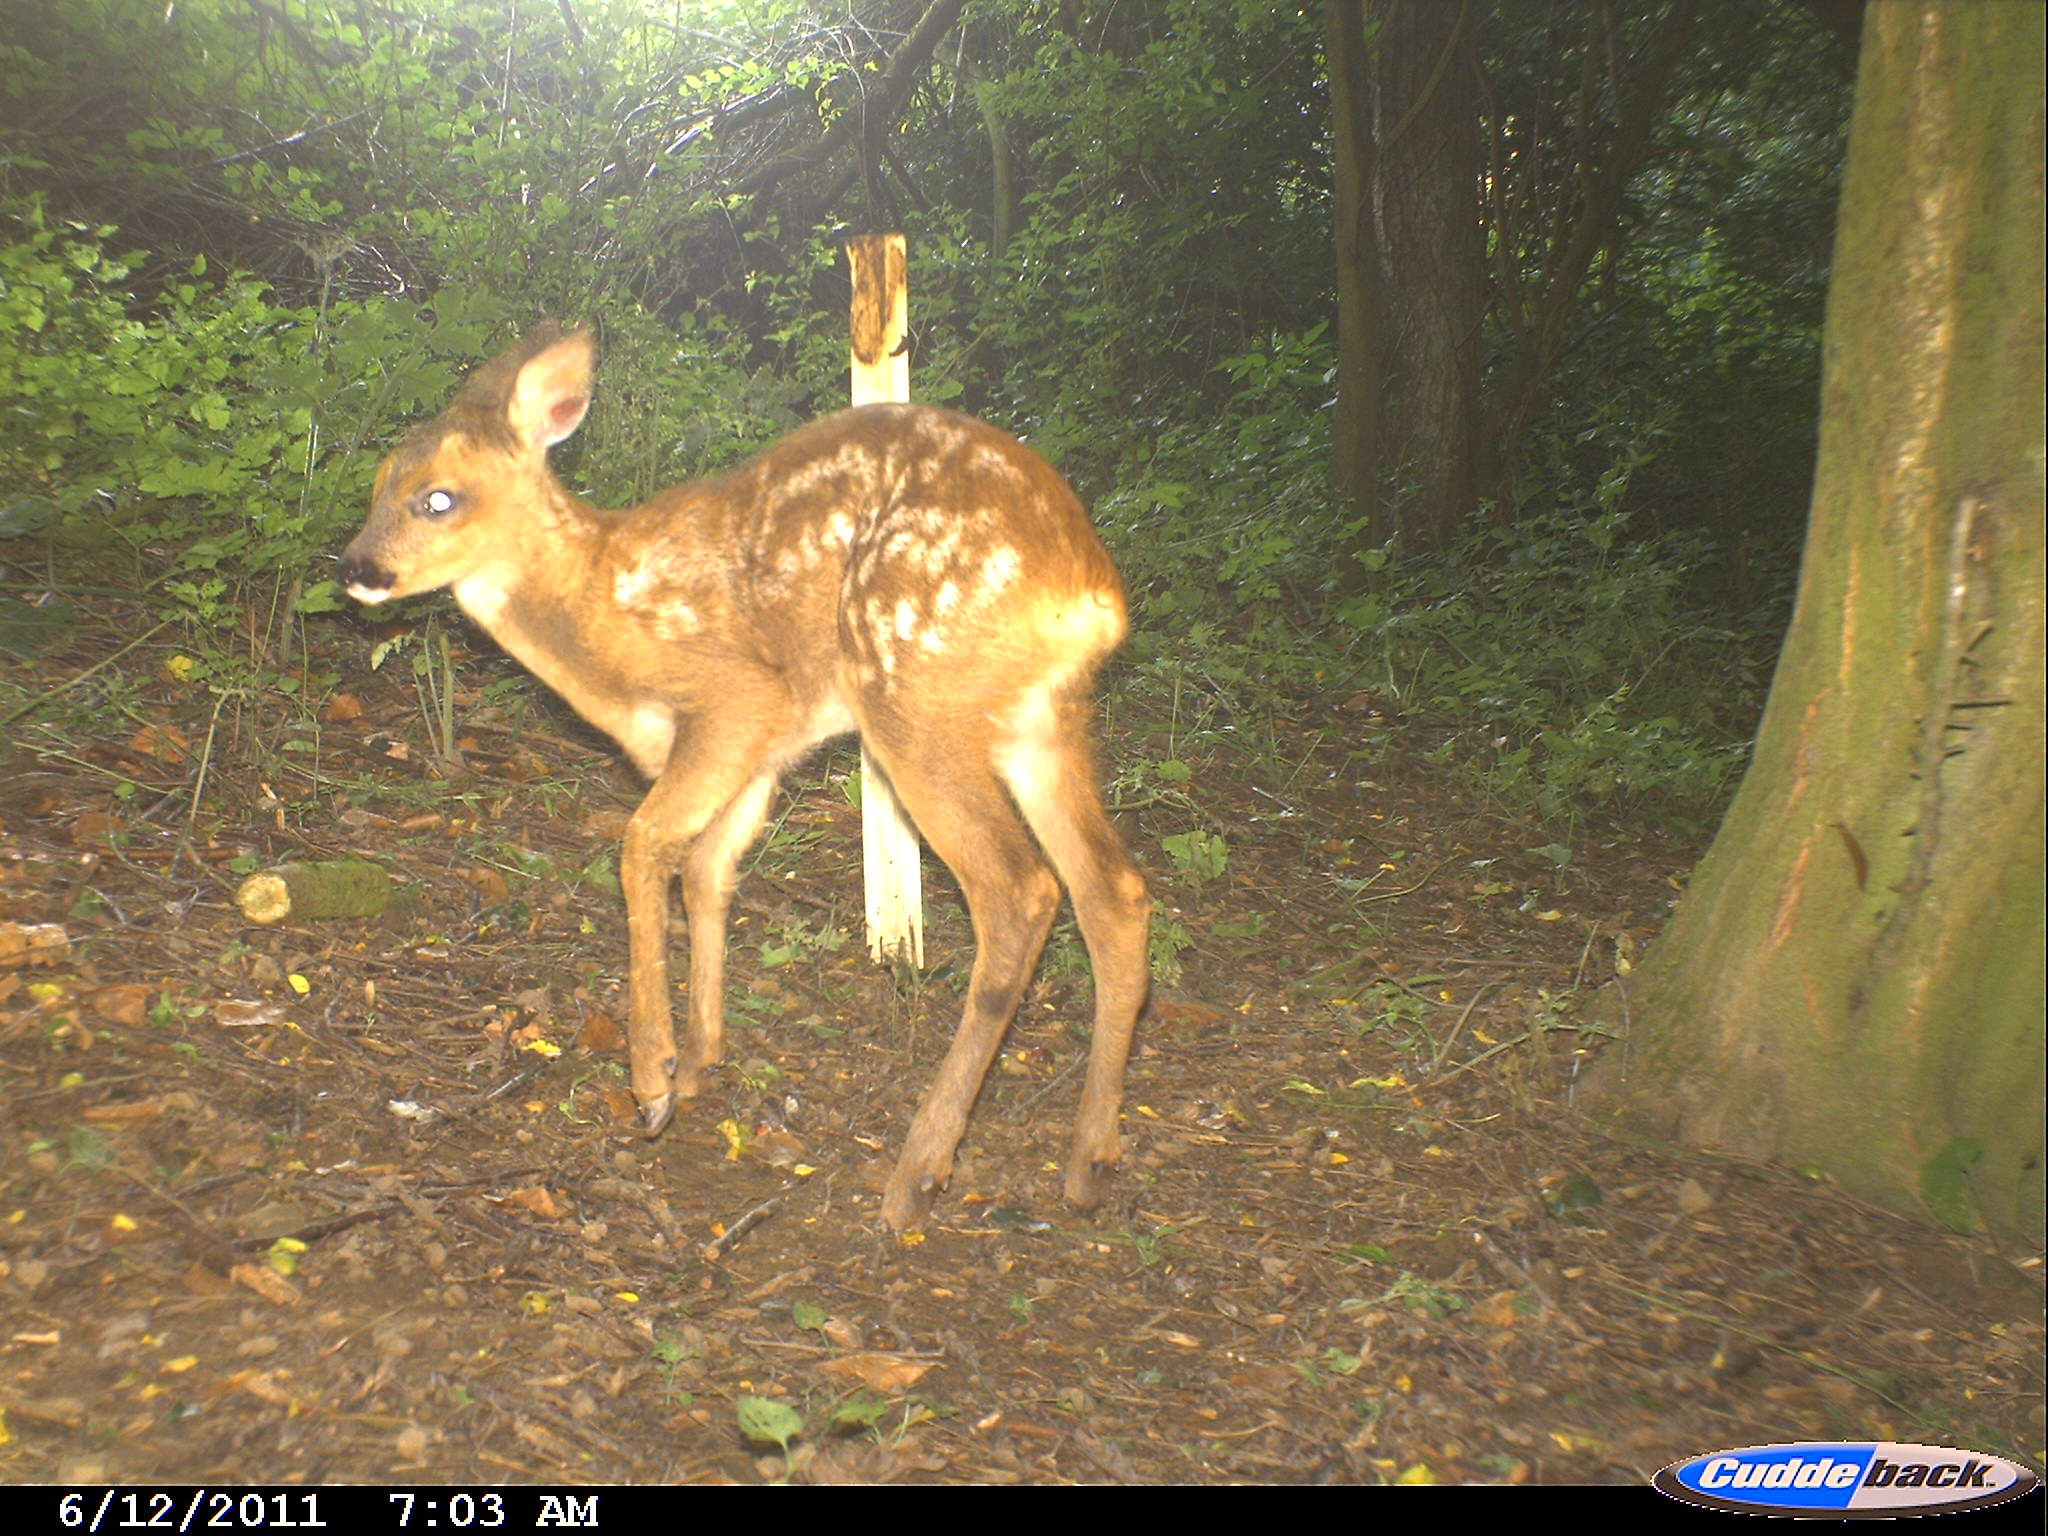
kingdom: Animalia
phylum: Chordata
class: Mammalia
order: Artiodactyla
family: Cervidae
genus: Capreolus
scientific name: Capreolus capreolus
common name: Western roe deer
